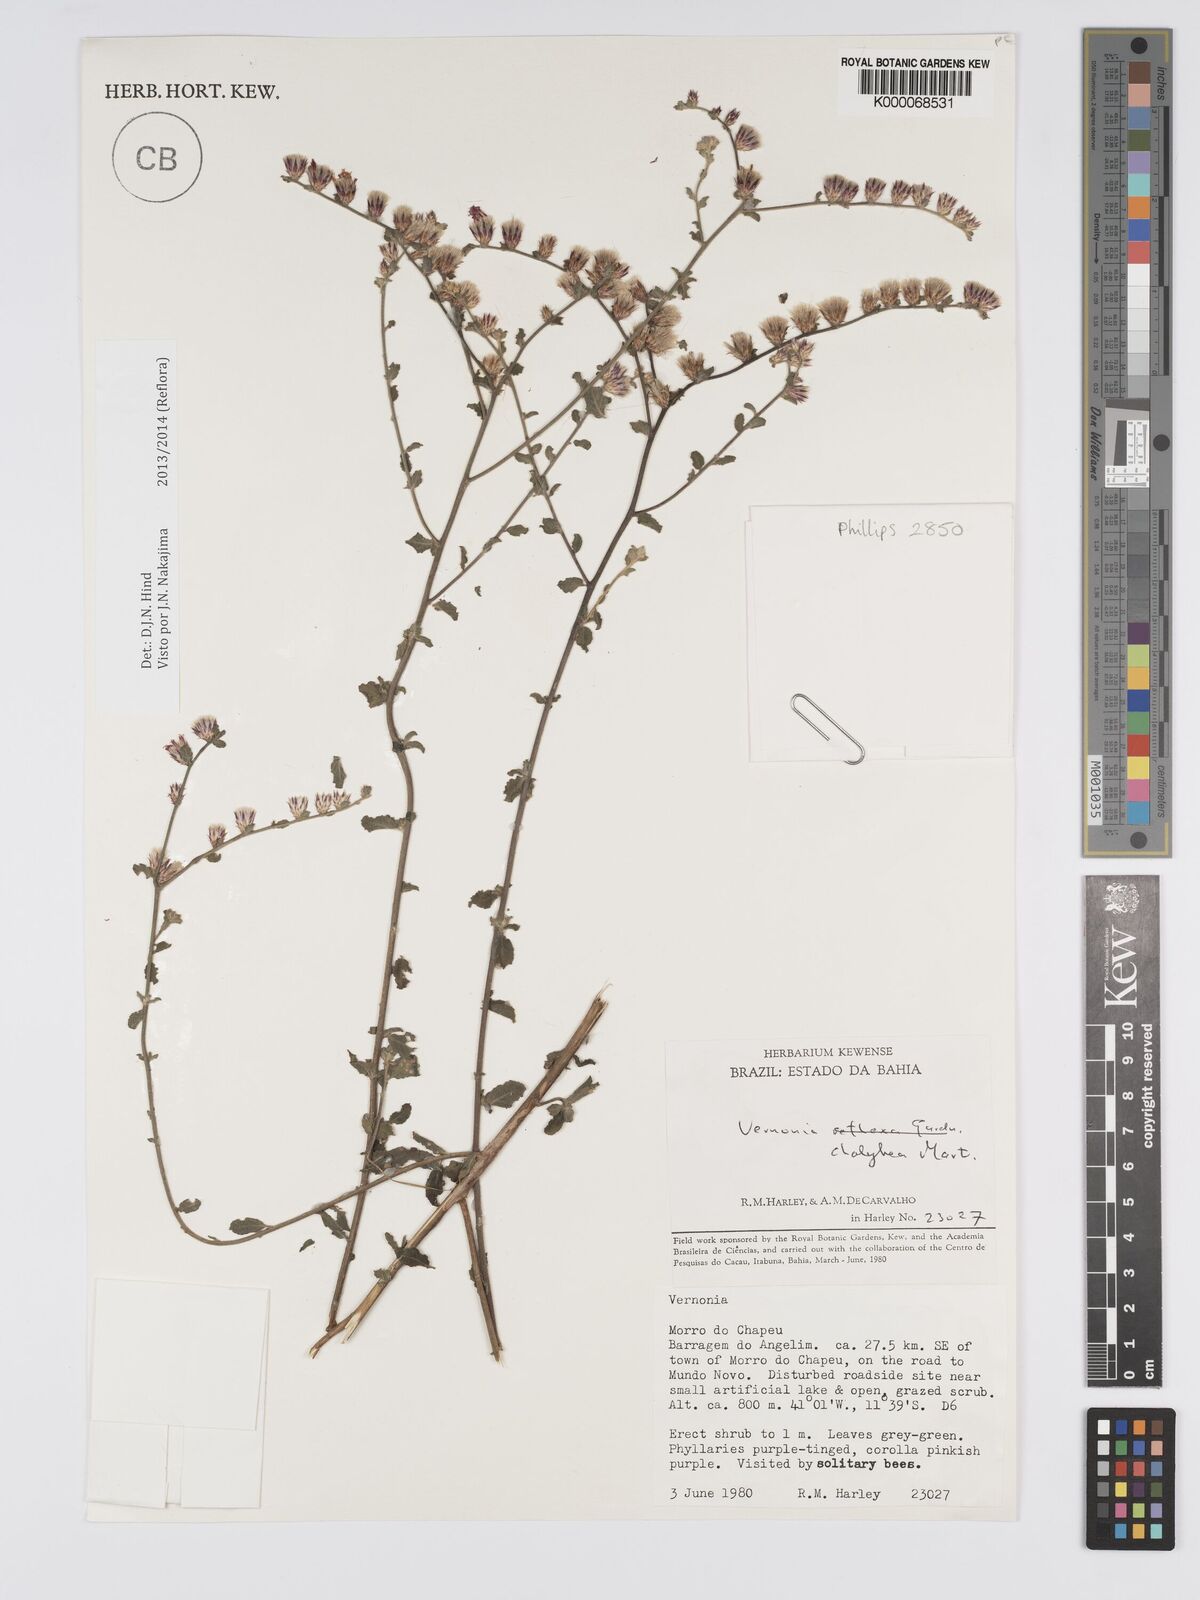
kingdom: Plantae
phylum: Tracheophyta
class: Magnoliopsida
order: Asterales
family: Asteraceae
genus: Lepidaploa
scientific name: Lepidaploa chalybaea
